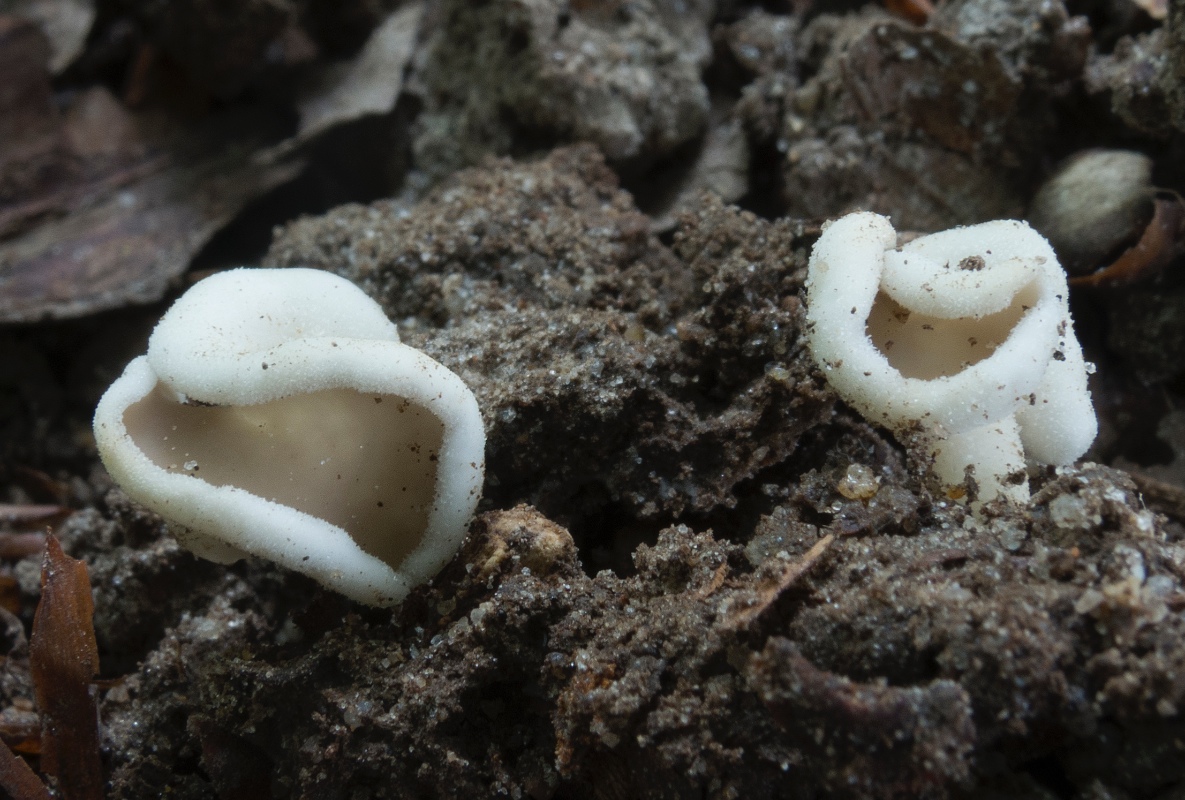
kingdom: Fungi
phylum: Ascomycota
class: Pezizomycetes
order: Pezizales
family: Helvellaceae
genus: Helvella
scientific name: Helvella sublicia
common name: saddel-foldhat
